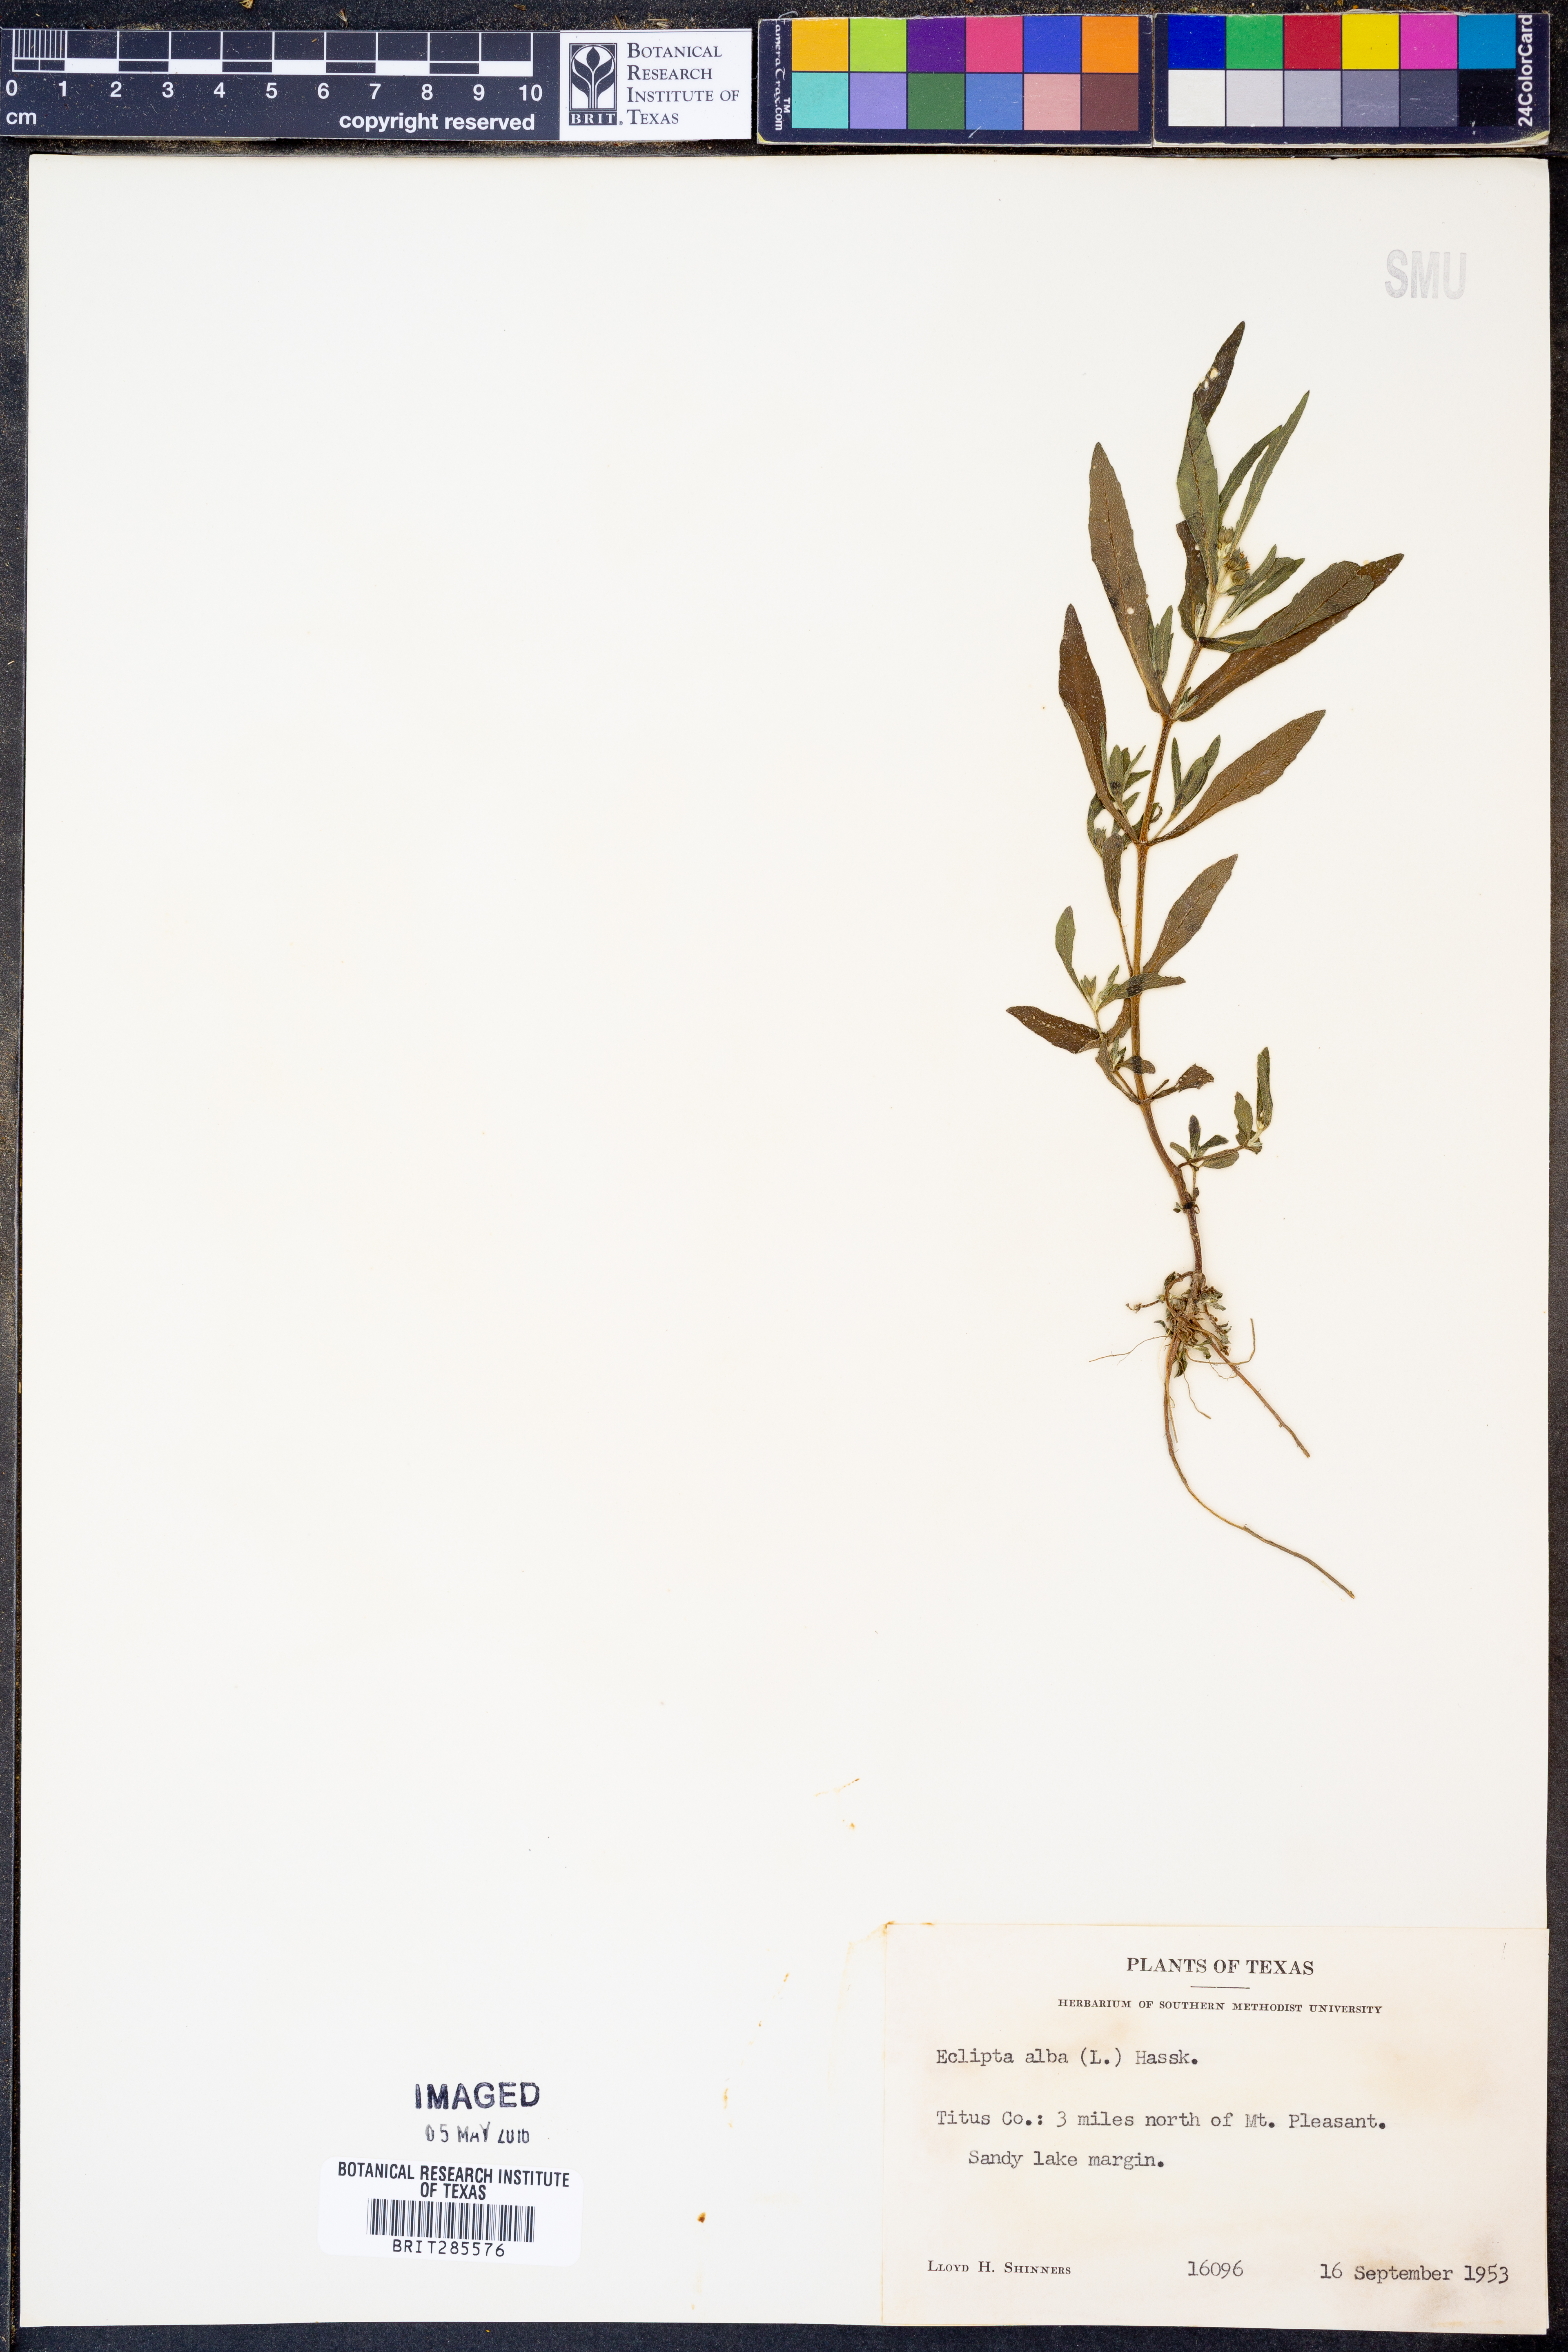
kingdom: Plantae
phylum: Tracheophyta
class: Magnoliopsida
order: Asterales
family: Asteraceae
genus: Eclipta
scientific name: Eclipta alba
